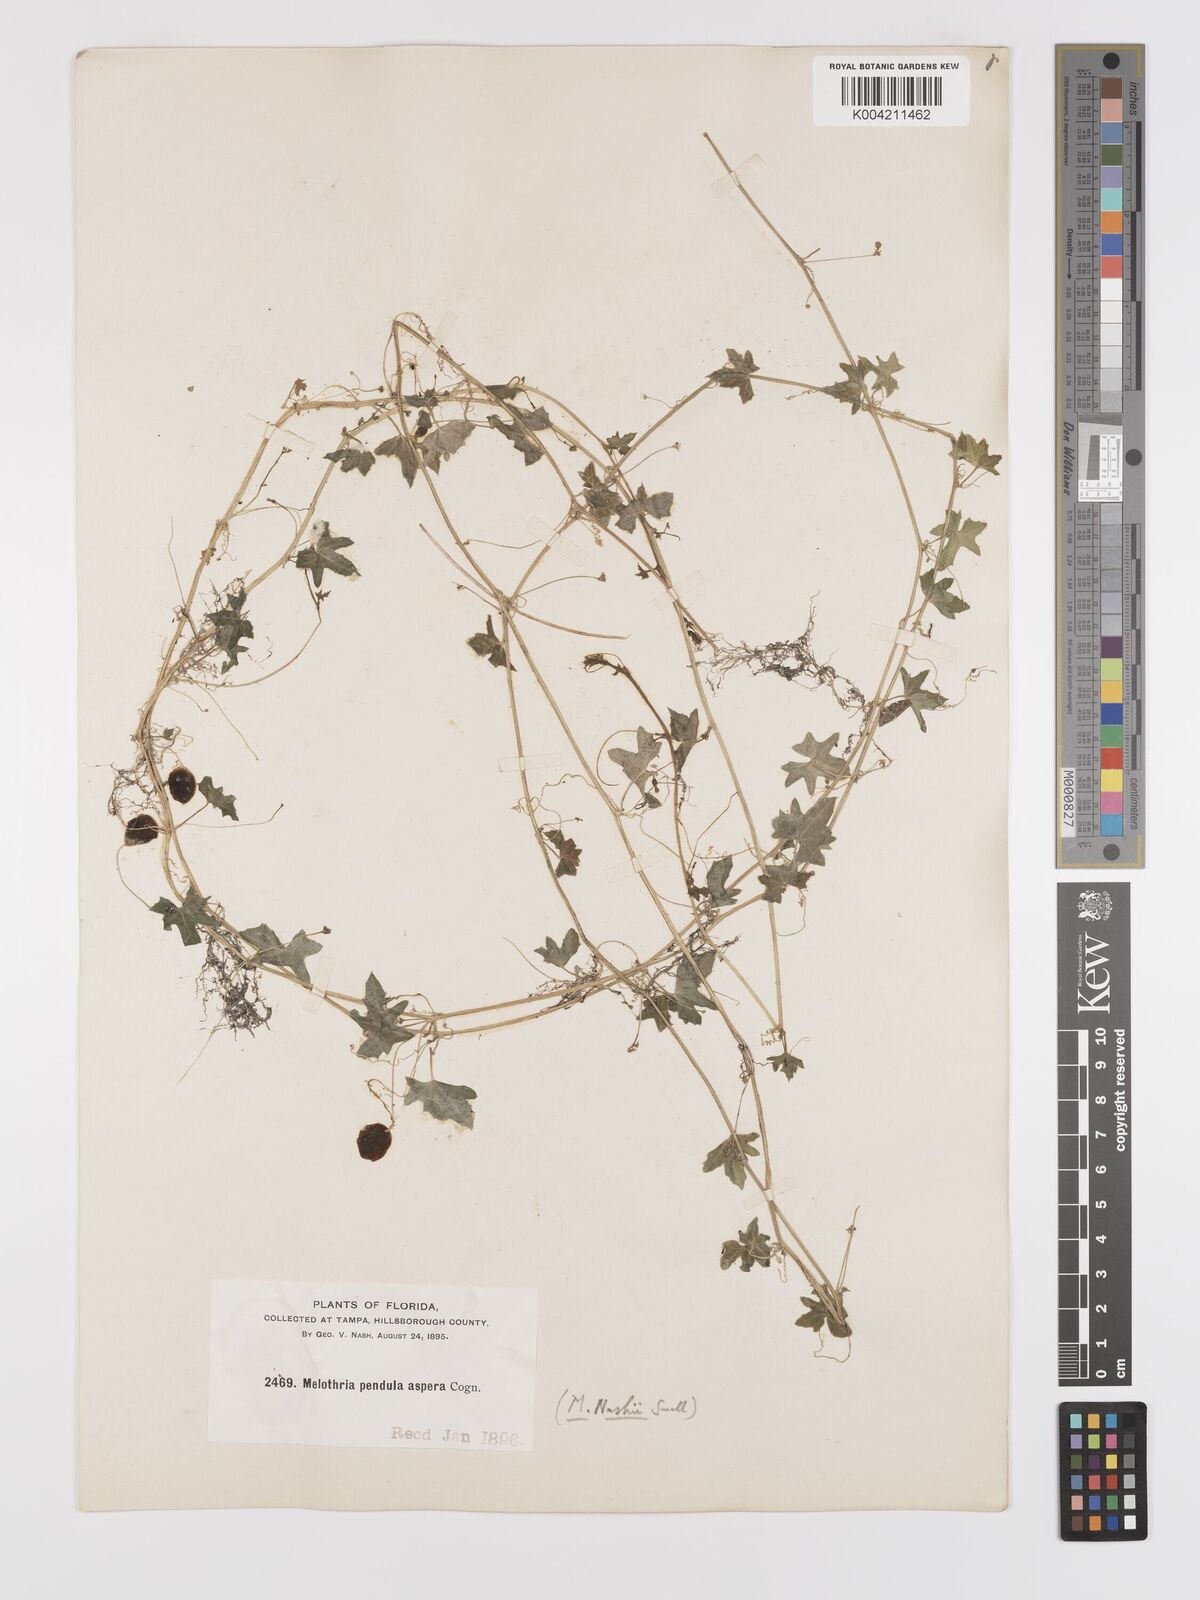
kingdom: Plantae
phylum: Tracheophyta
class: Magnoliopsida
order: Cucurbitales
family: Cucurbitaceae
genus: Melothria
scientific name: Melothria pendula
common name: Creeping-cucumber
